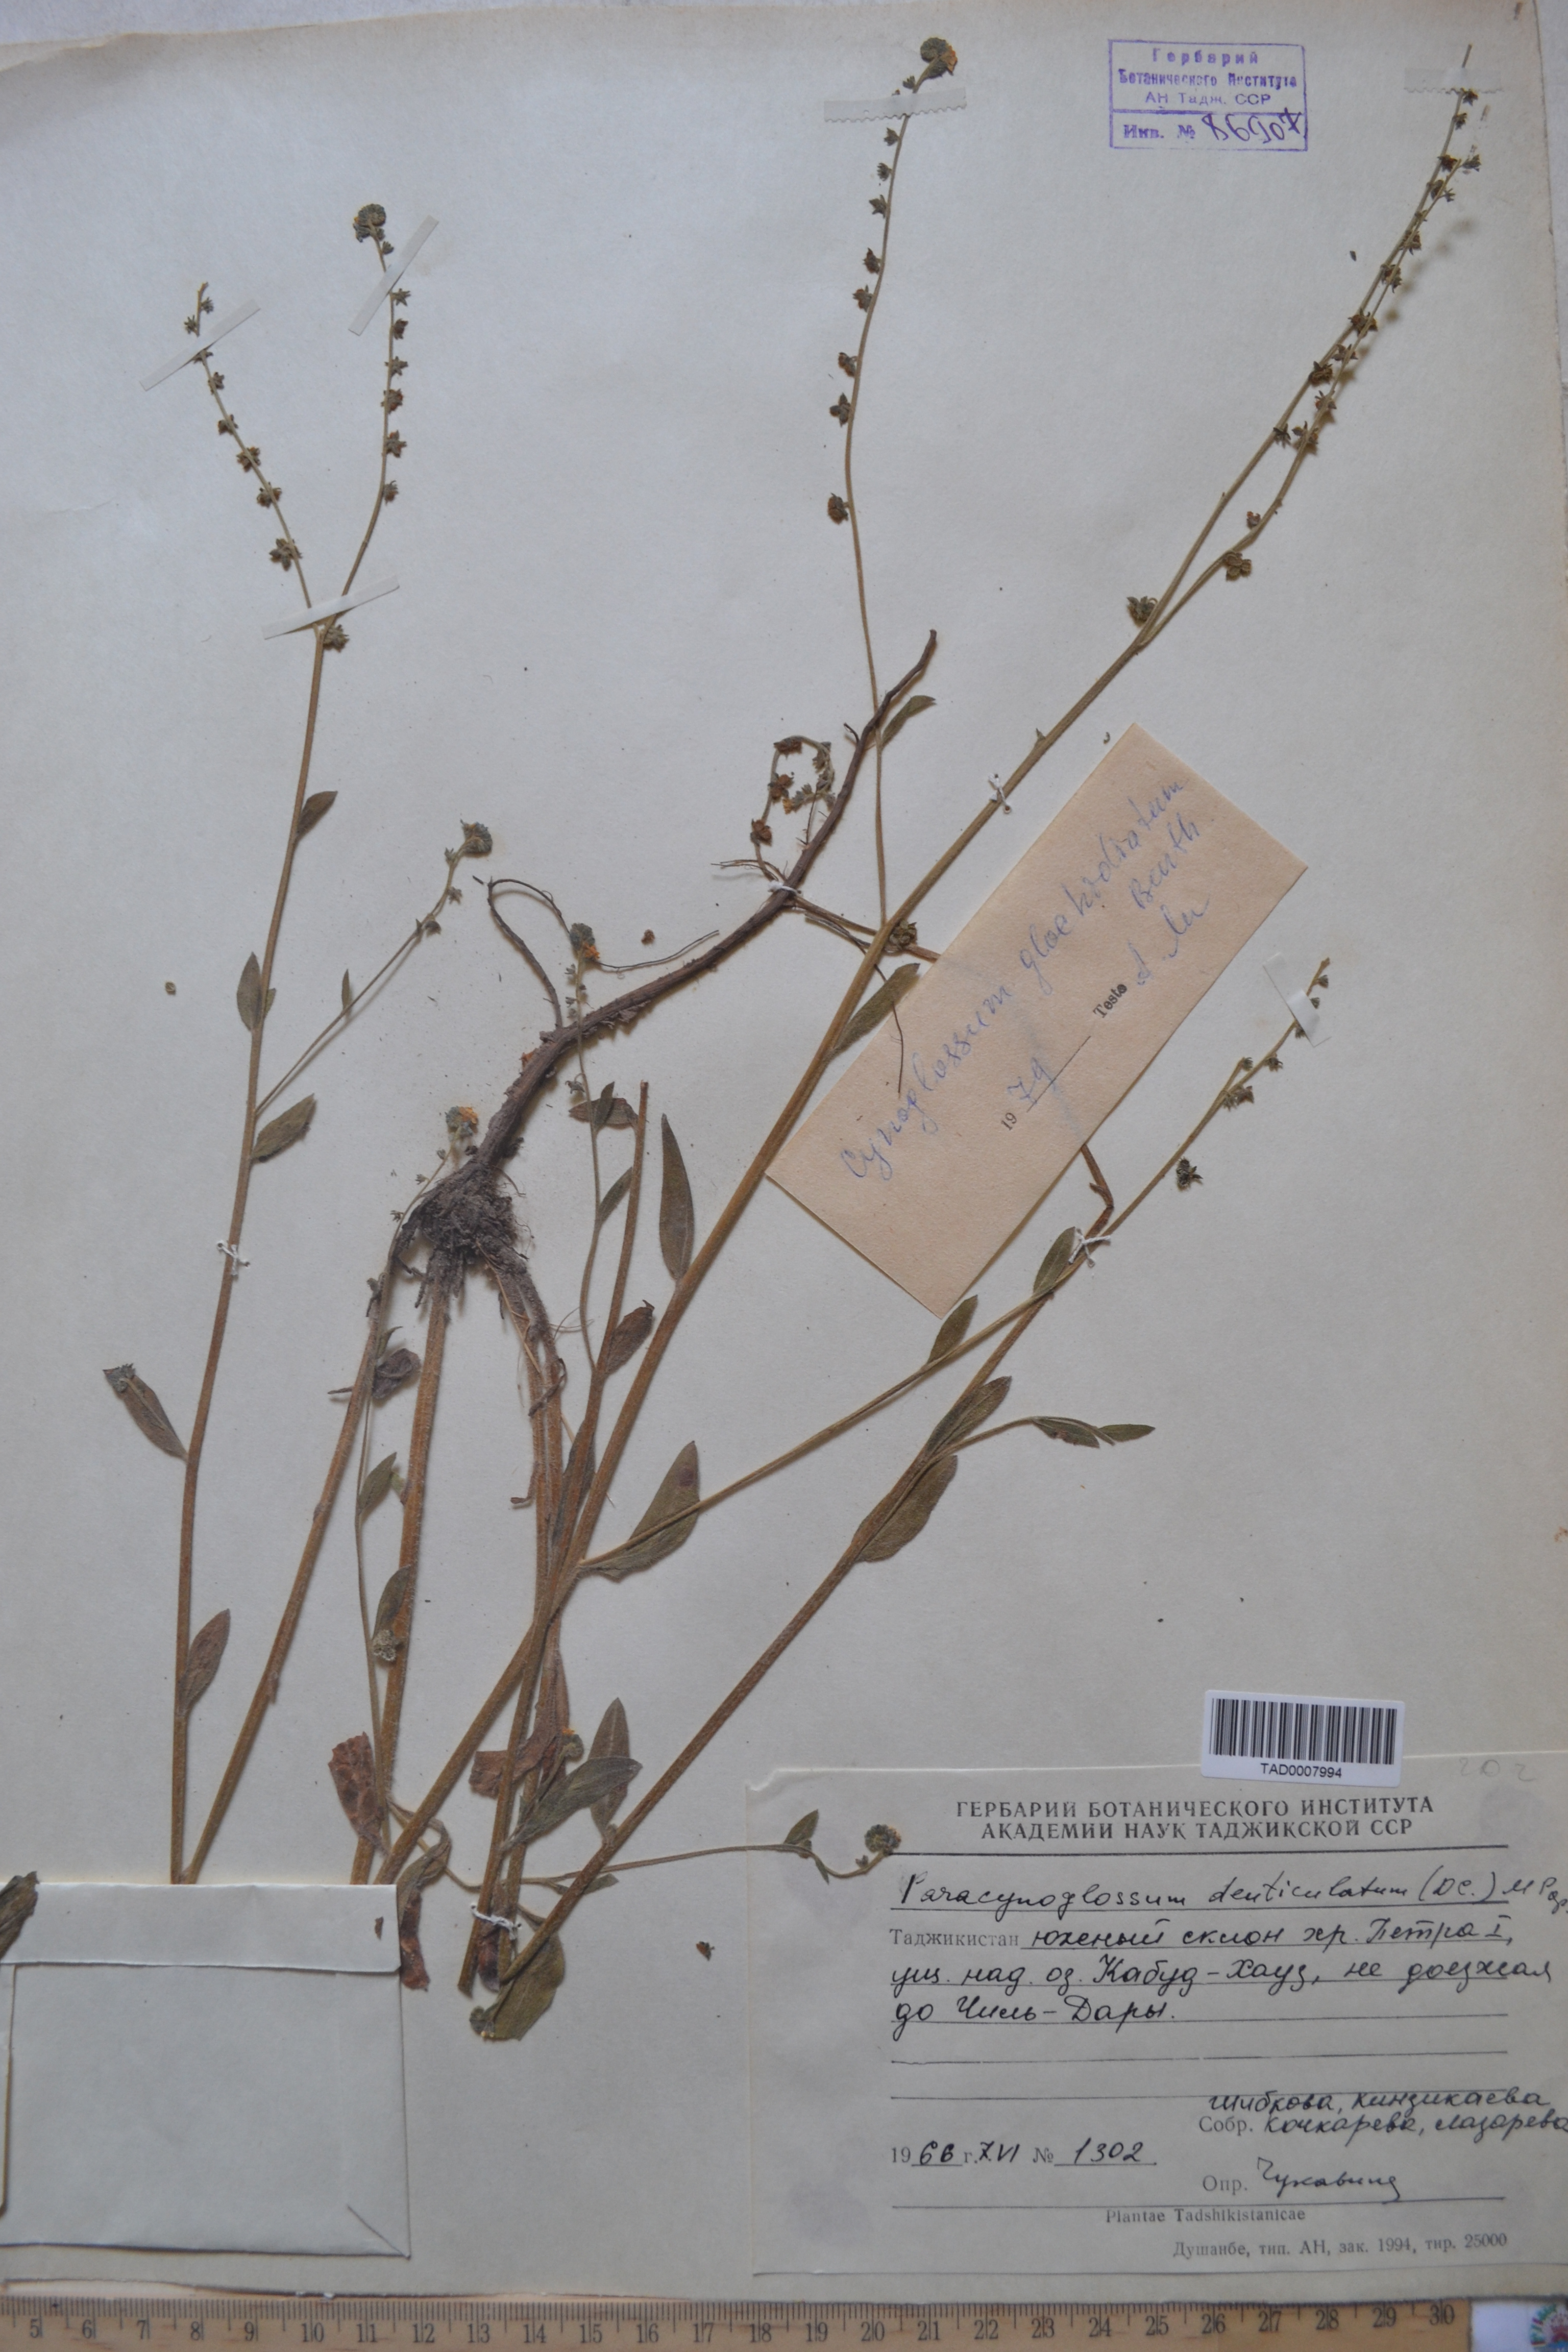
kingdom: Plantae
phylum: Tracheophyta
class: Magnoliopsida
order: Boraginales
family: Boraginaceae
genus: Paracynoglossum
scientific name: Paracynoglossum glochidiatum
